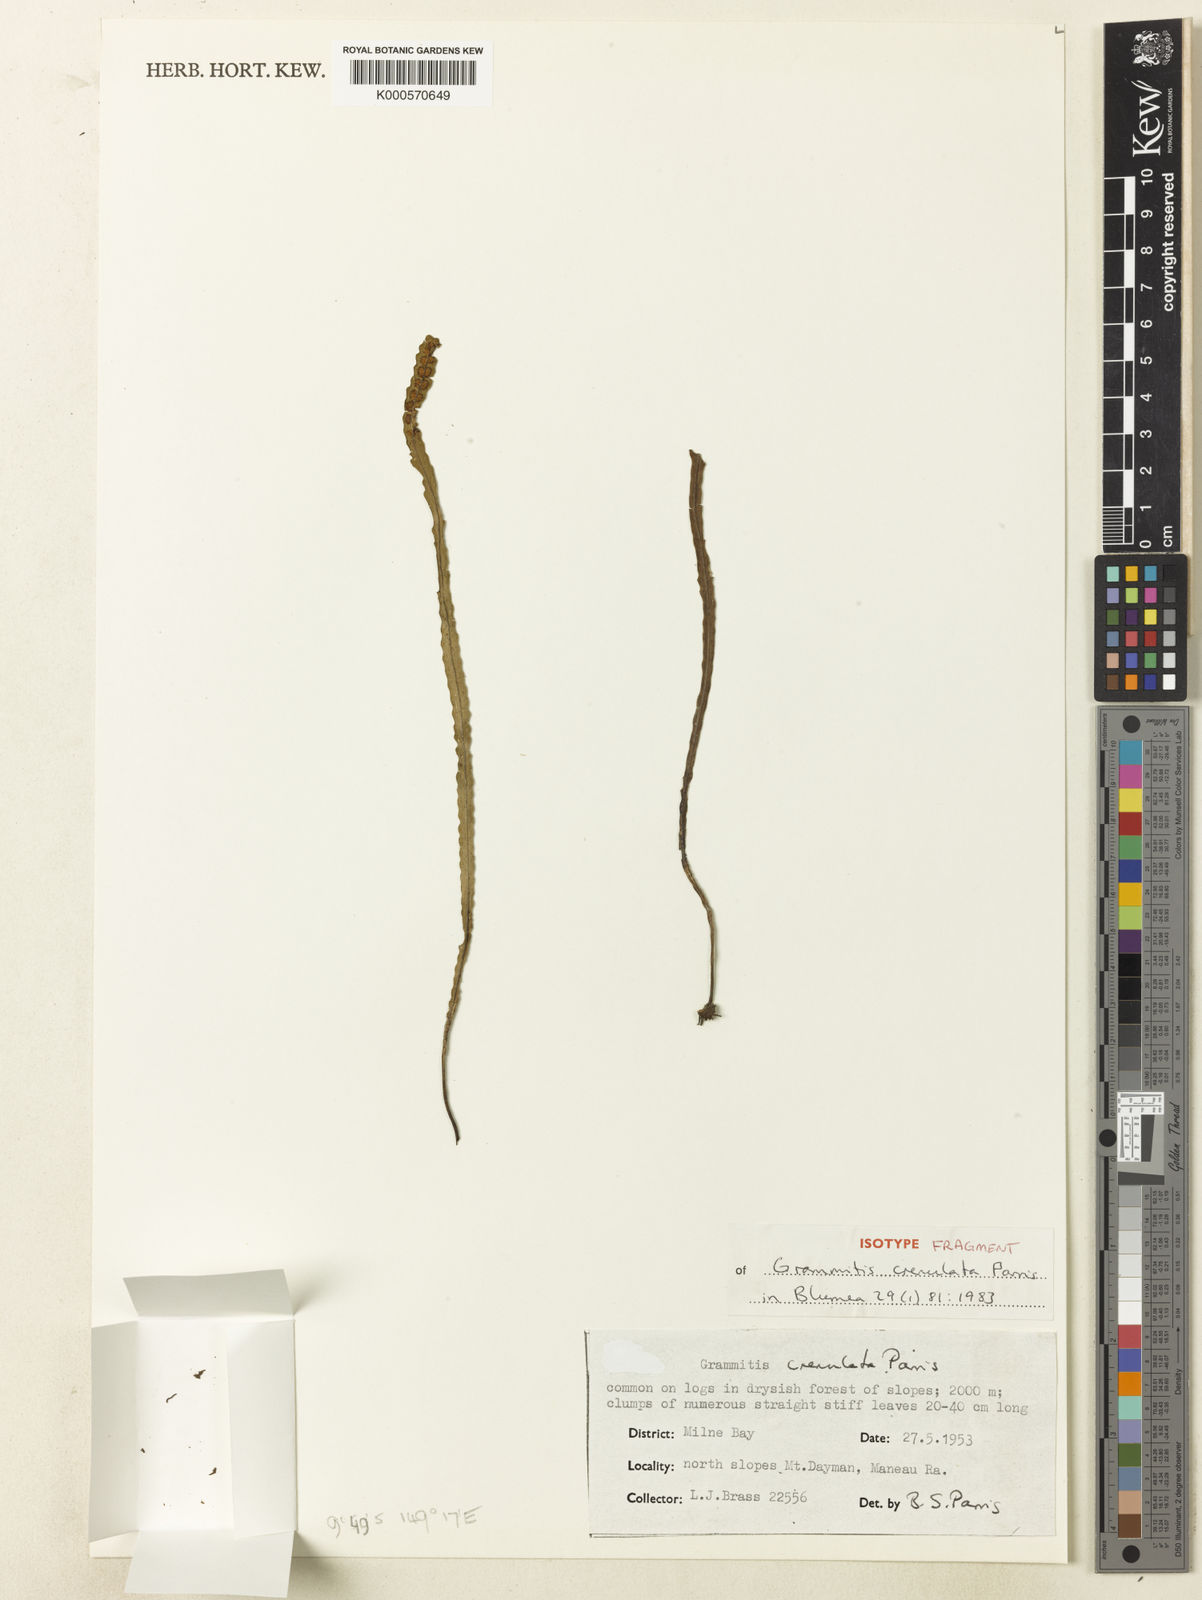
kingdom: Plantae
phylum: Tracheophyta
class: Polypodiopsida
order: Polypodiales
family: Polypodiaceae
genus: Oreogrammitis
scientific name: Oreogrammitis crenulata
